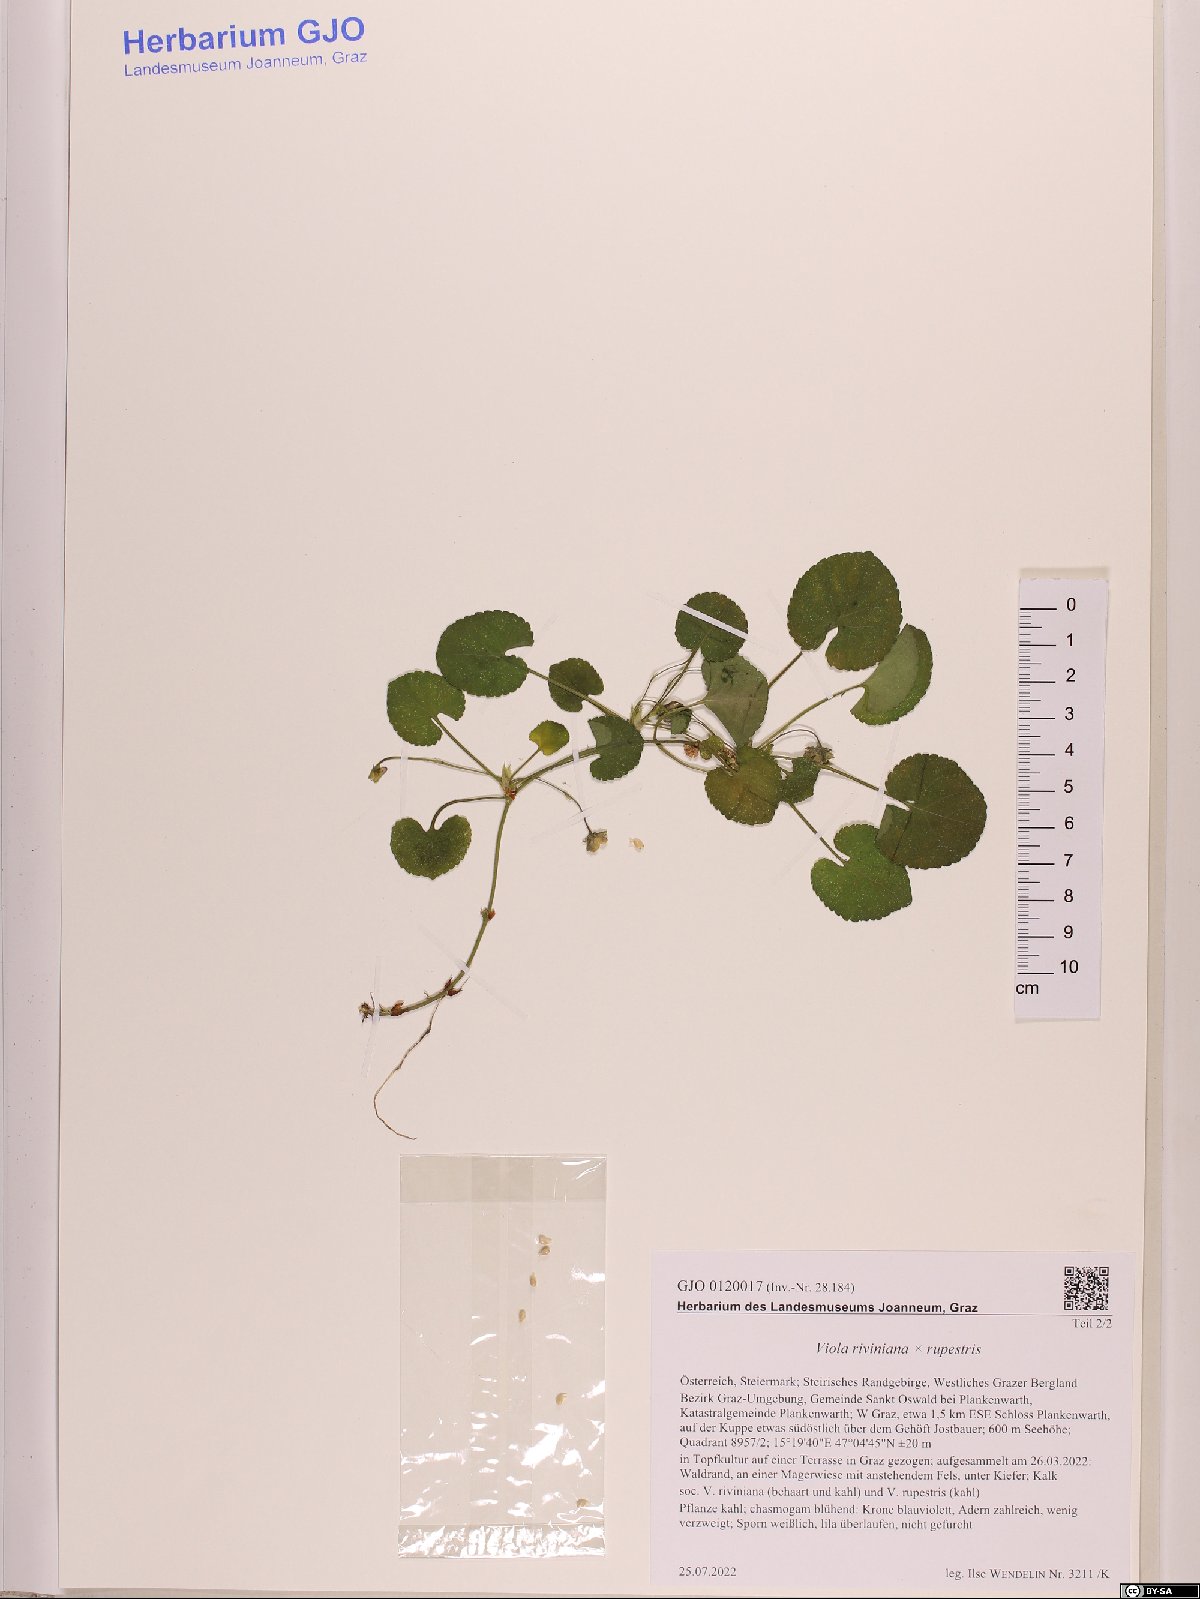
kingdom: Plantae
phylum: Tracheophyta
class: Magnoliopsida
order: Malpighiales
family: Violaceae
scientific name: Violaceae
